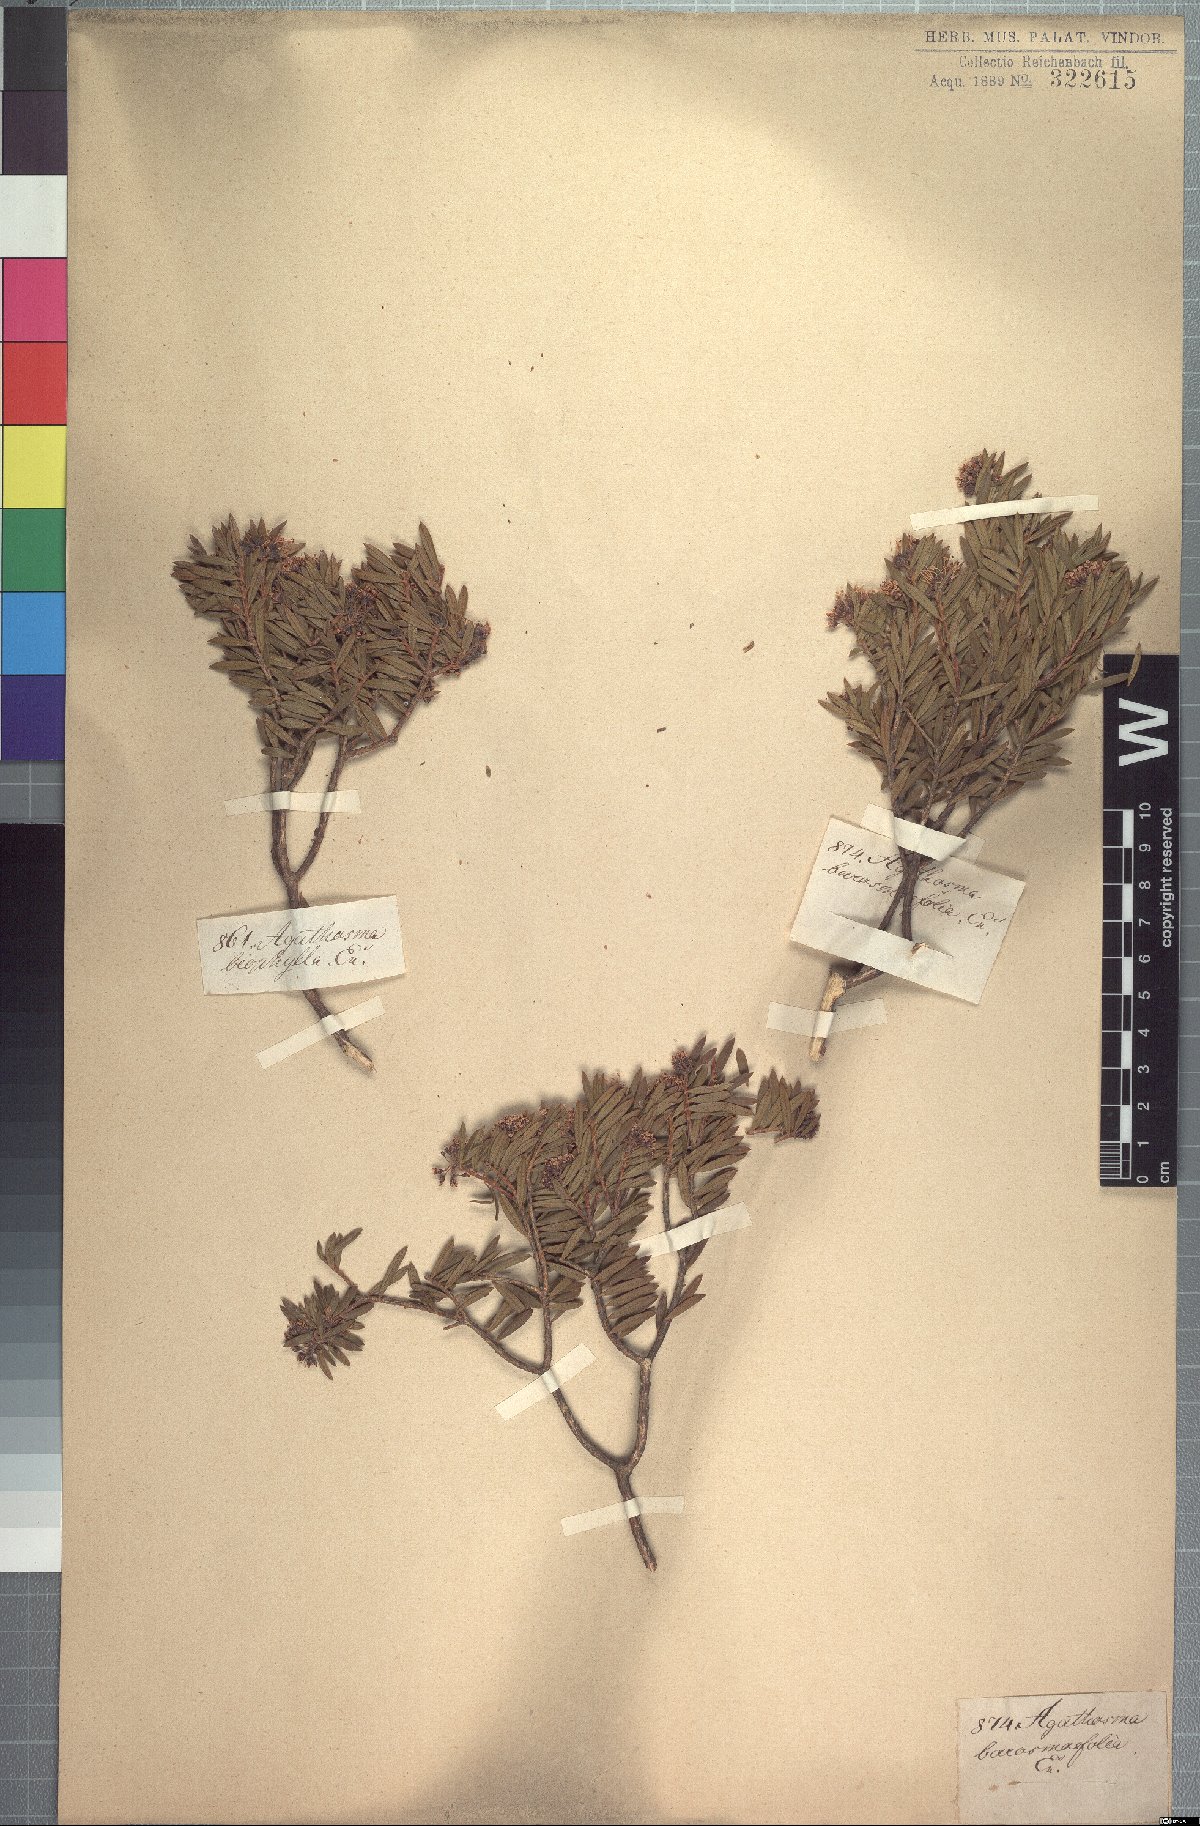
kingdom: Plantae
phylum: Tracheophyta
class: Magnoliopsida
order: Sapindales
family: Rutaceae
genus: Agathosma
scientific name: Agathosma bisulca
